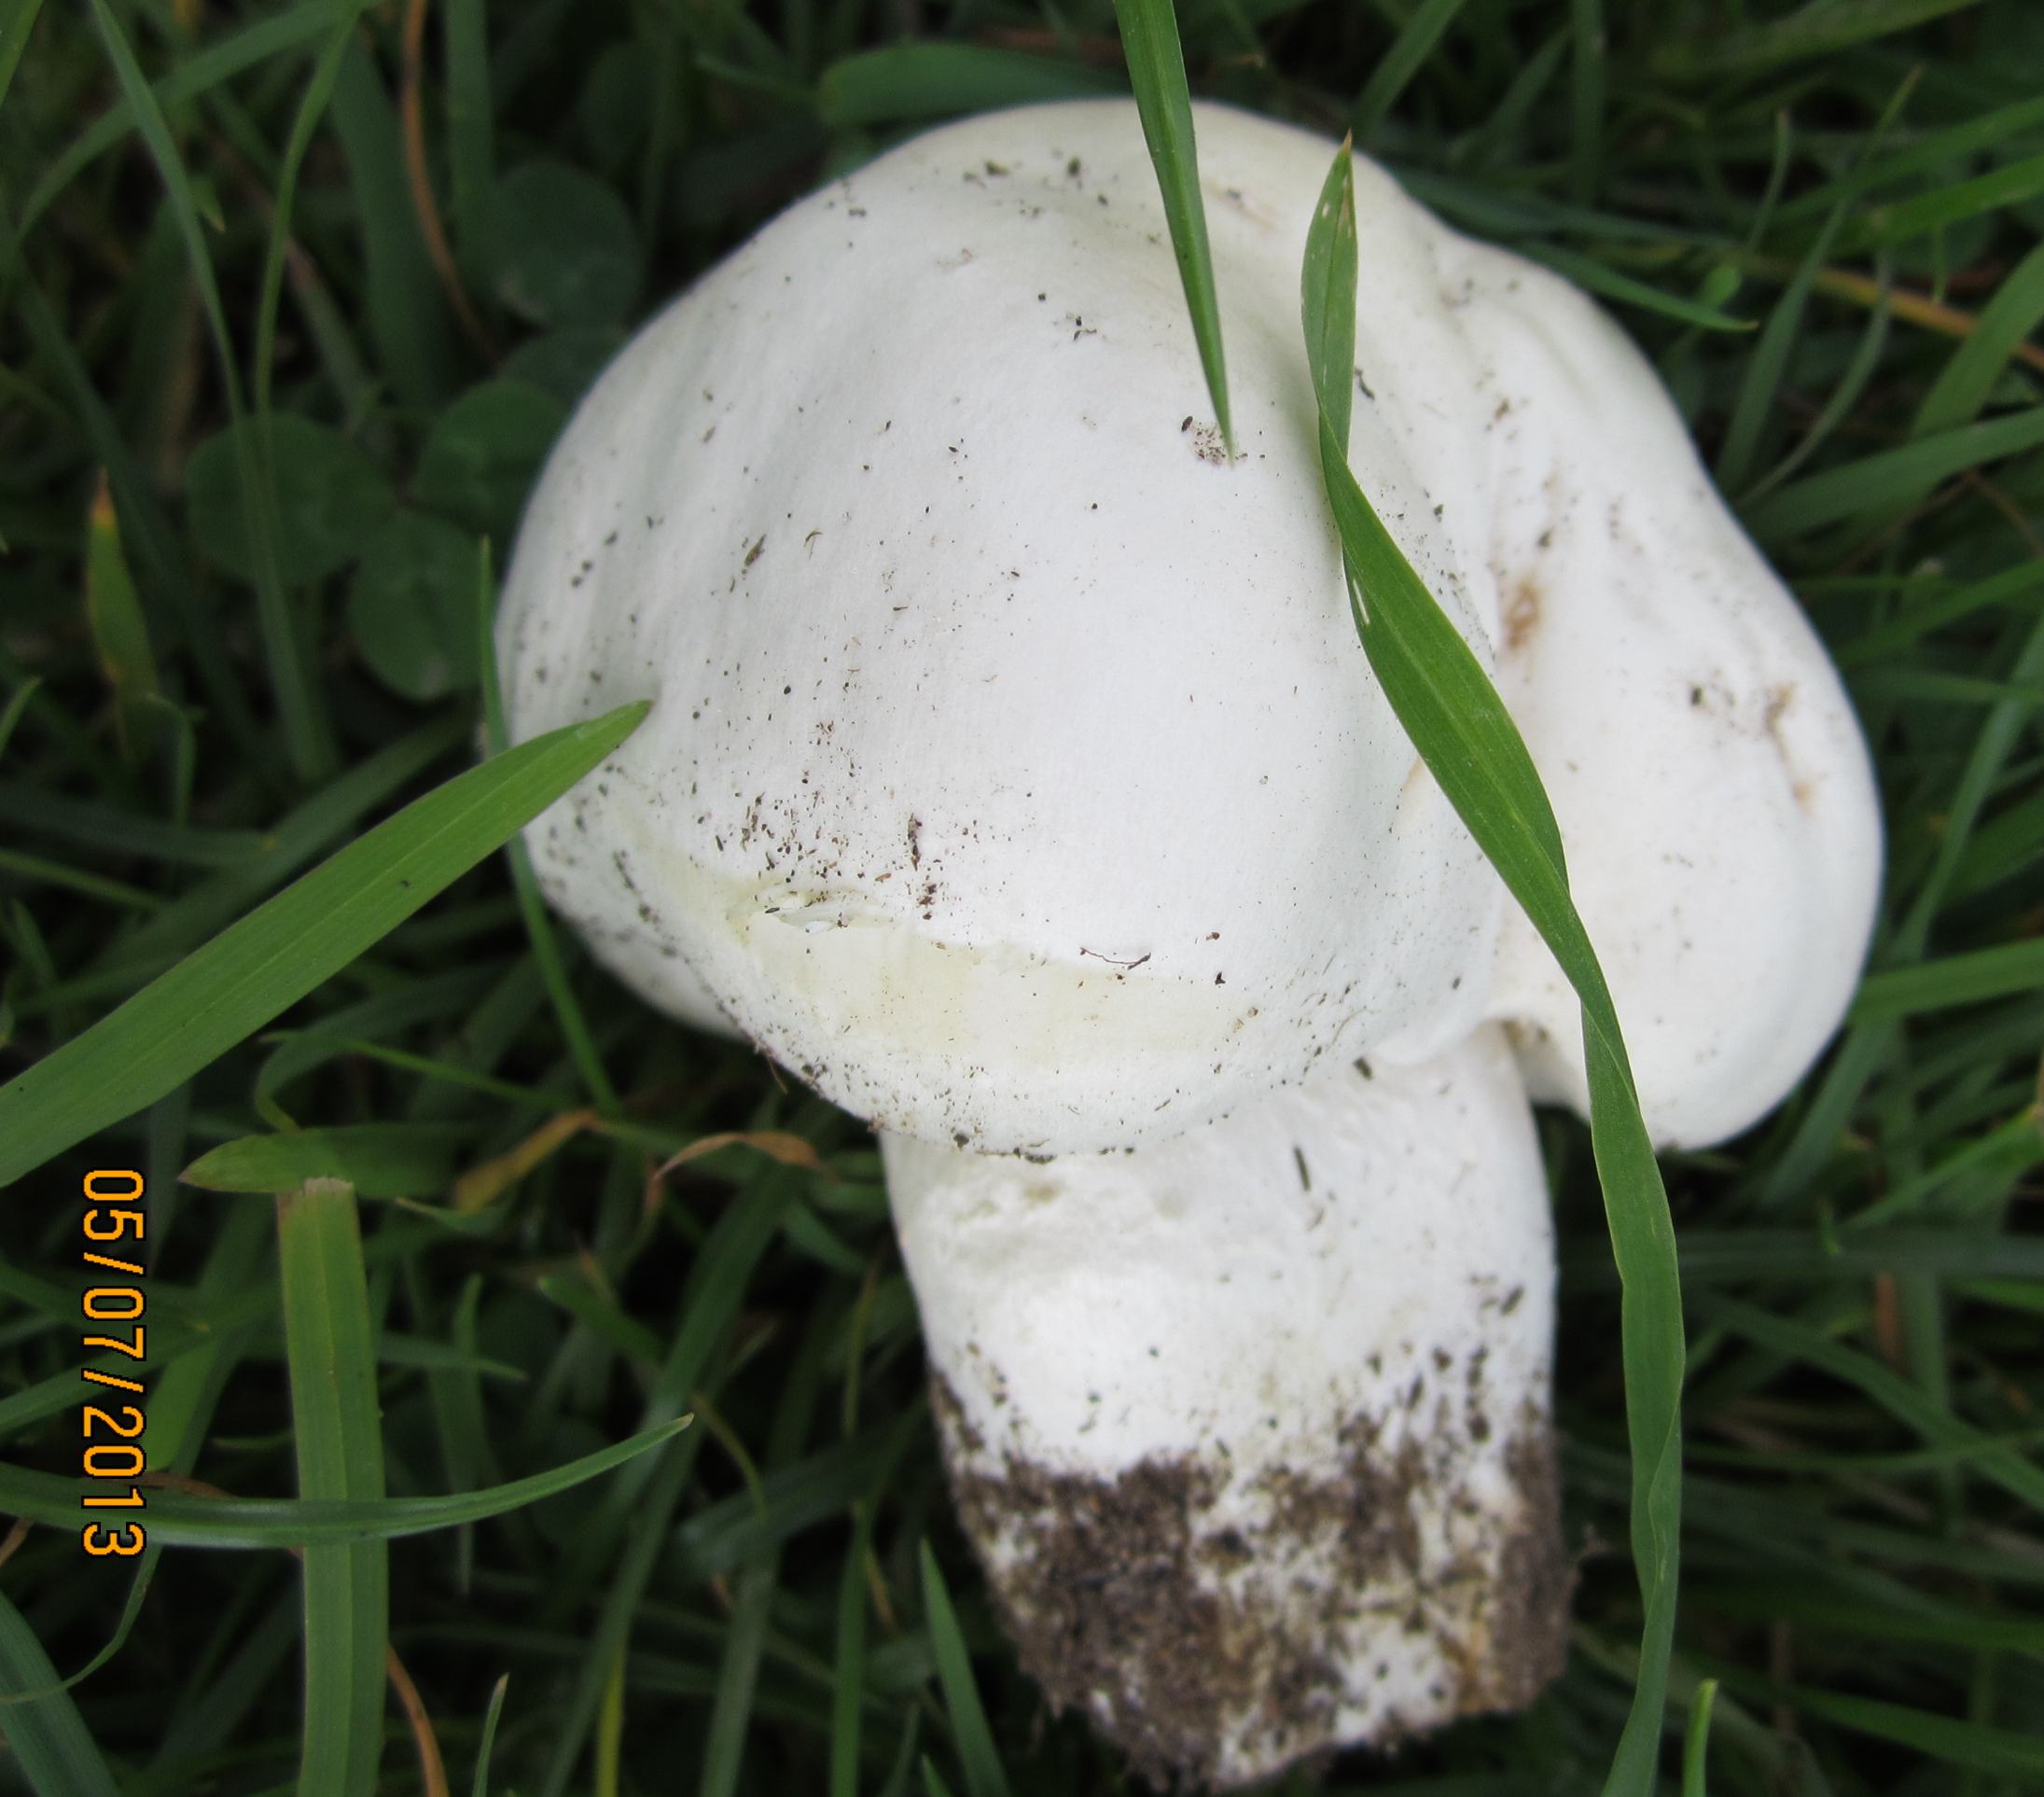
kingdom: Fungi
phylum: Basidiomycota
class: Agaricomycetes
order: Agaricales
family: Agaricaceae
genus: Agaricus
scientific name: Agaricus arvensis
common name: ager-champignon
